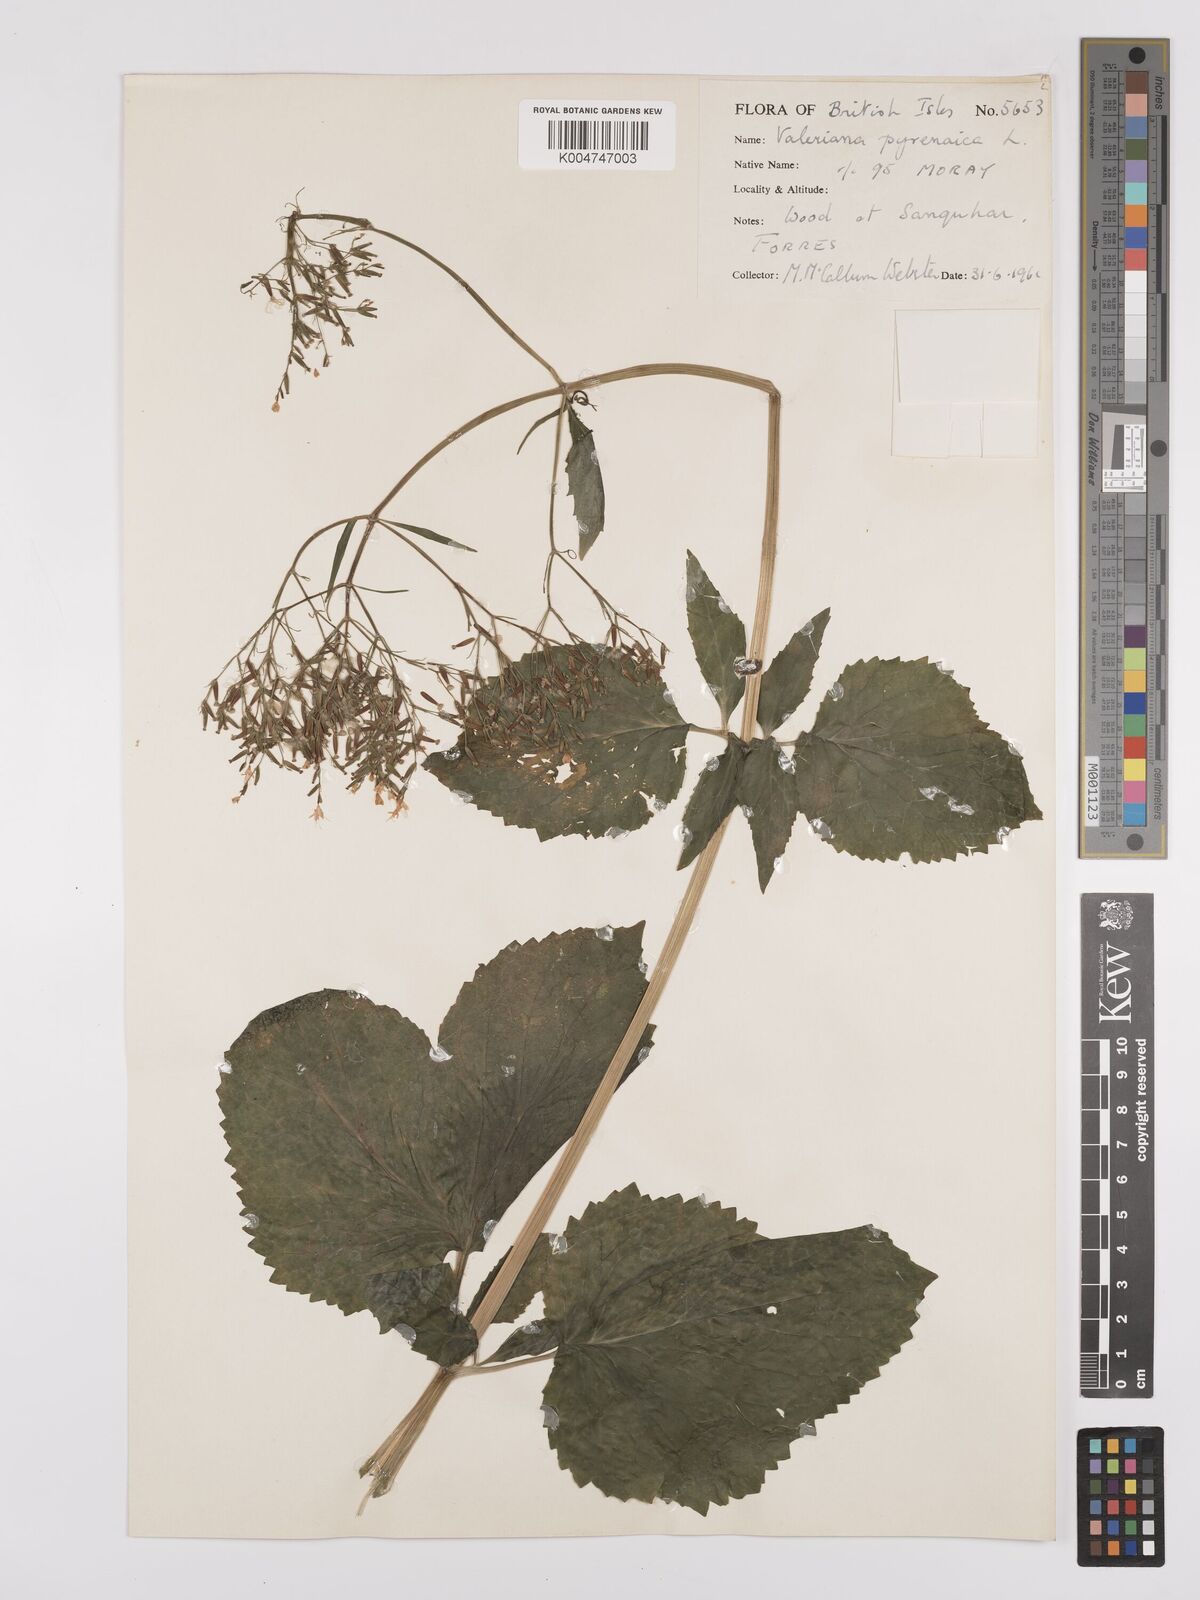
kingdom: Plantae
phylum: Tracheophyta
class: Magnoliopsida
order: Dipsacales
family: Caprifoliaceae
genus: Valeriana
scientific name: Valeriana pyrenaica
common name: Pyrenean valerian
